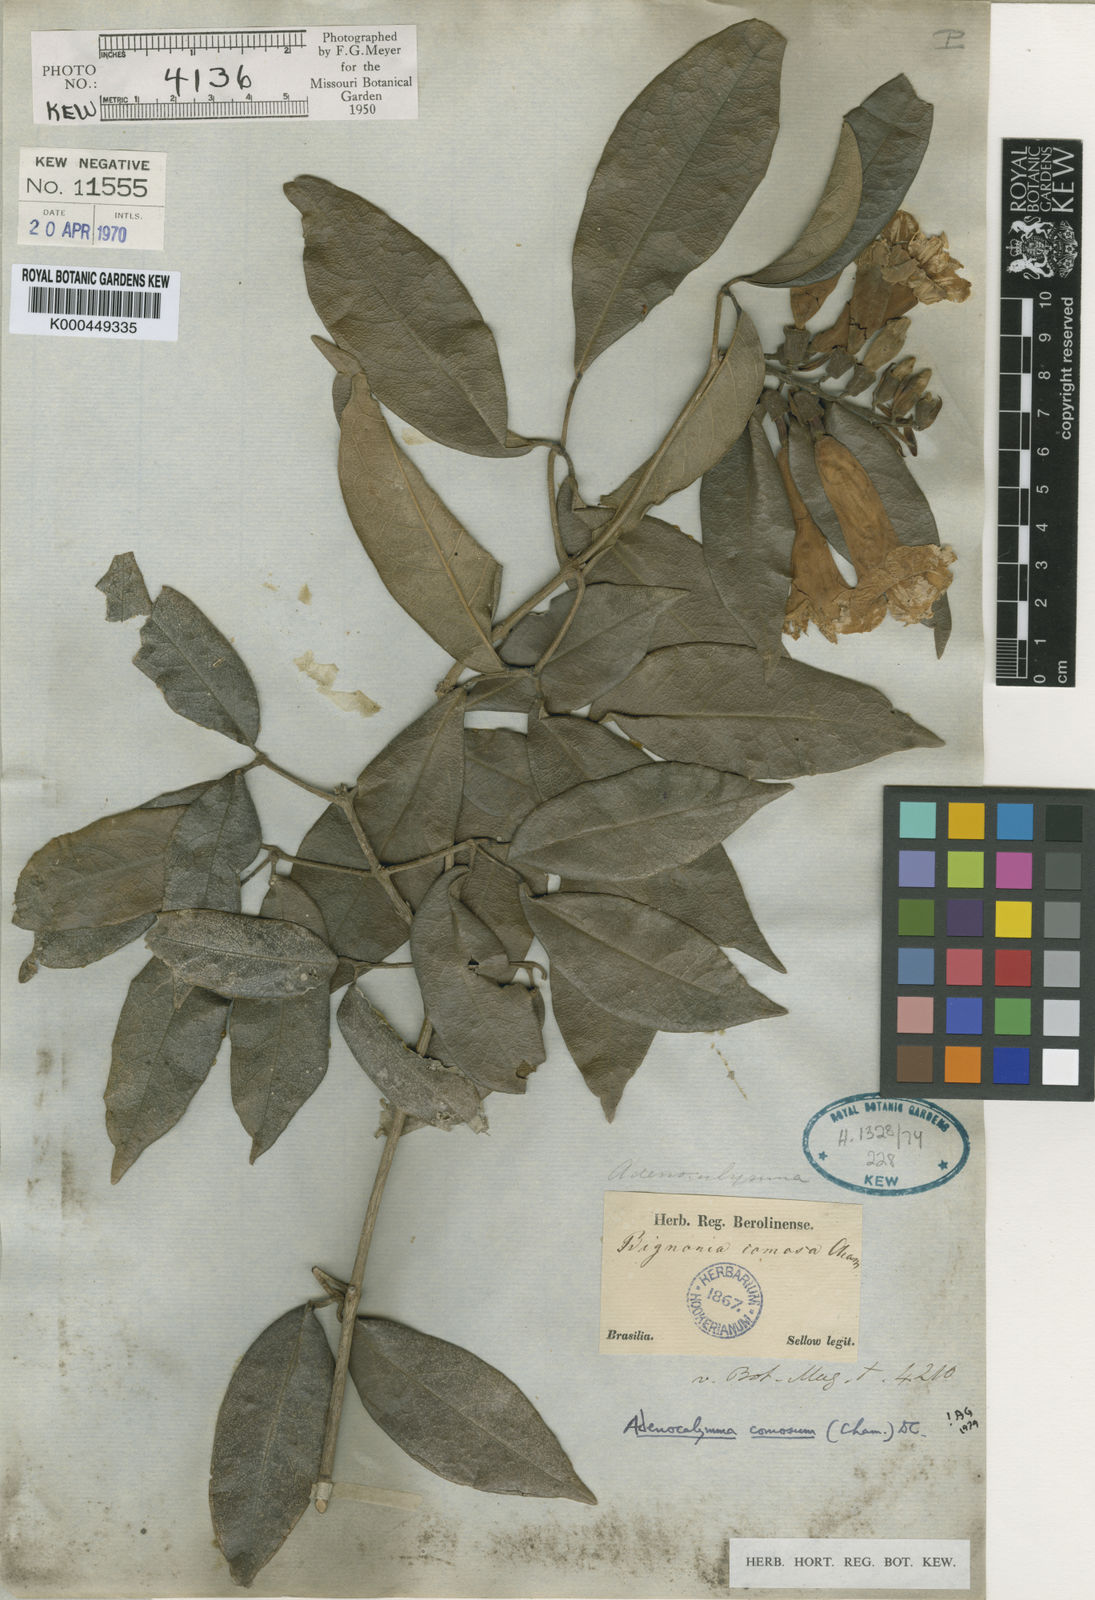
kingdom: Plantae
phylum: Tracheophyta
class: Magnoliopsida
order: Lamiales
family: Bignoniaceae
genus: Adenocalymma
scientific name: Adenocalymma acutissimum
